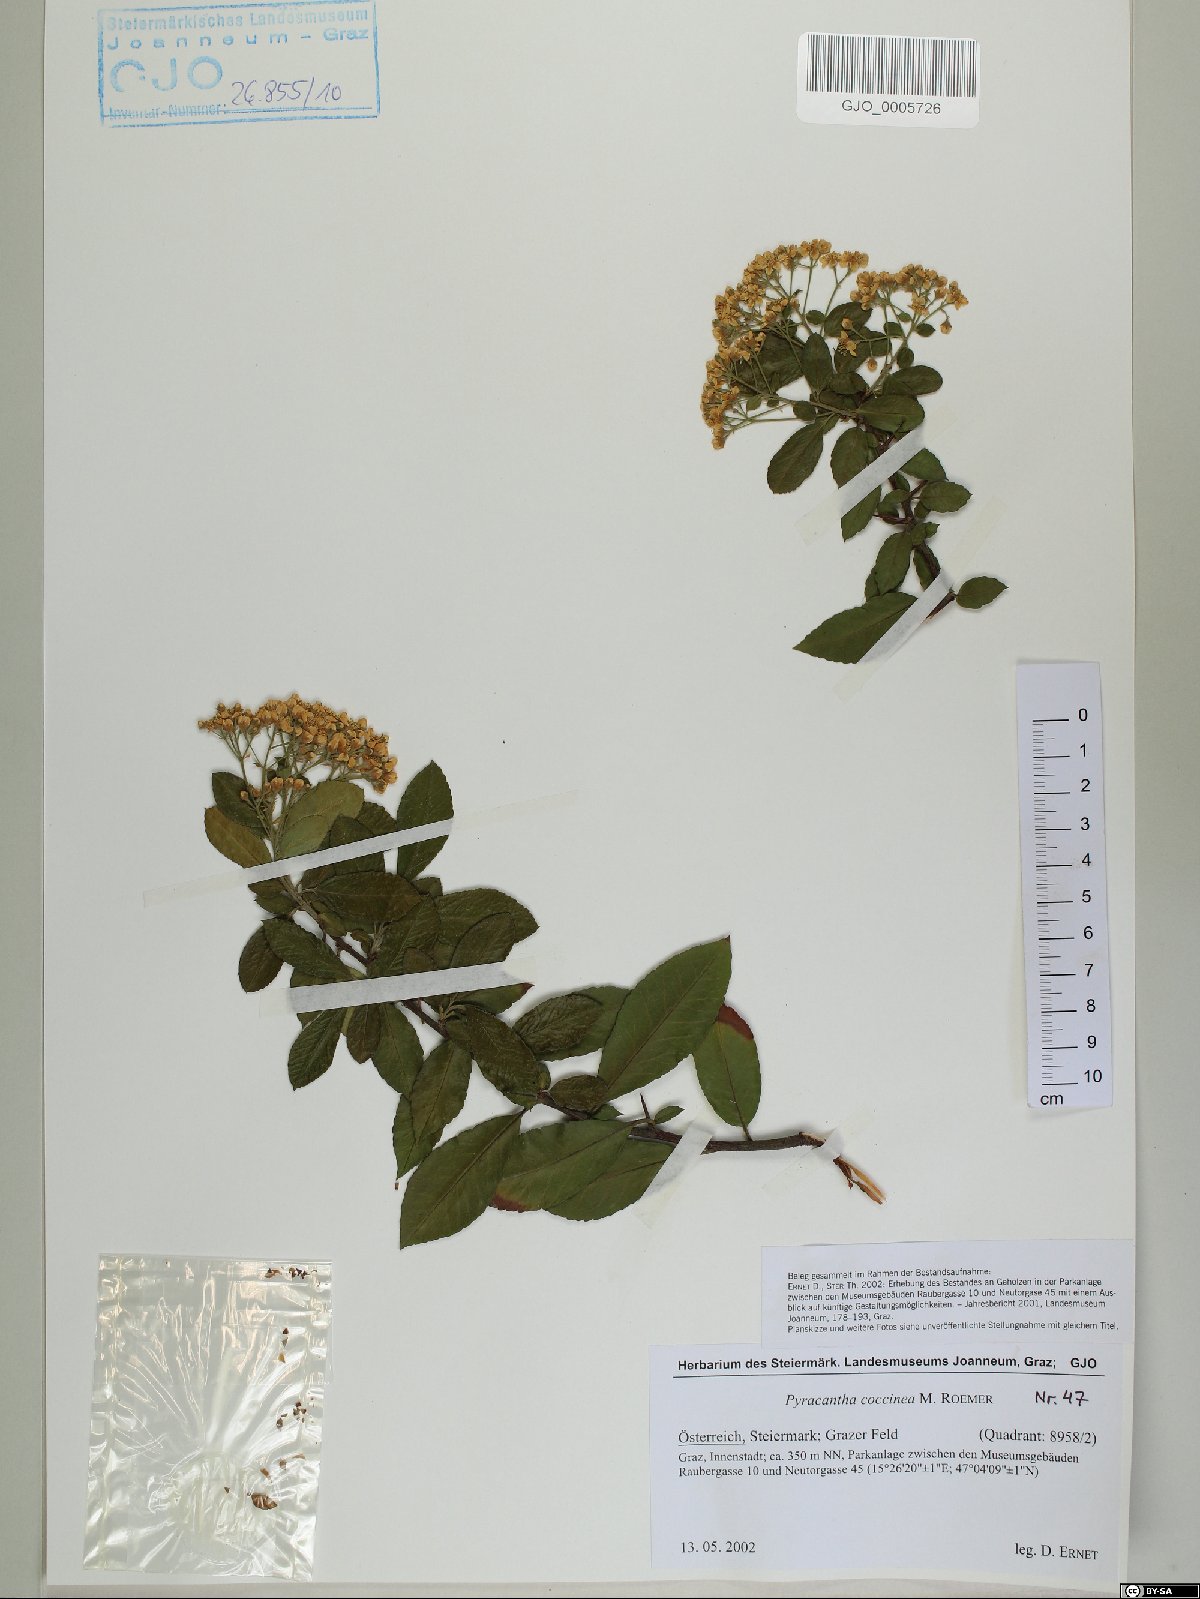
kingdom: Plantae
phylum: Tracheophyta
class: Magnoliopsida
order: Rosales
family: Rosaceae
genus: Pyracantha
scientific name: Pyracantha coccinea
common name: Firethorn
